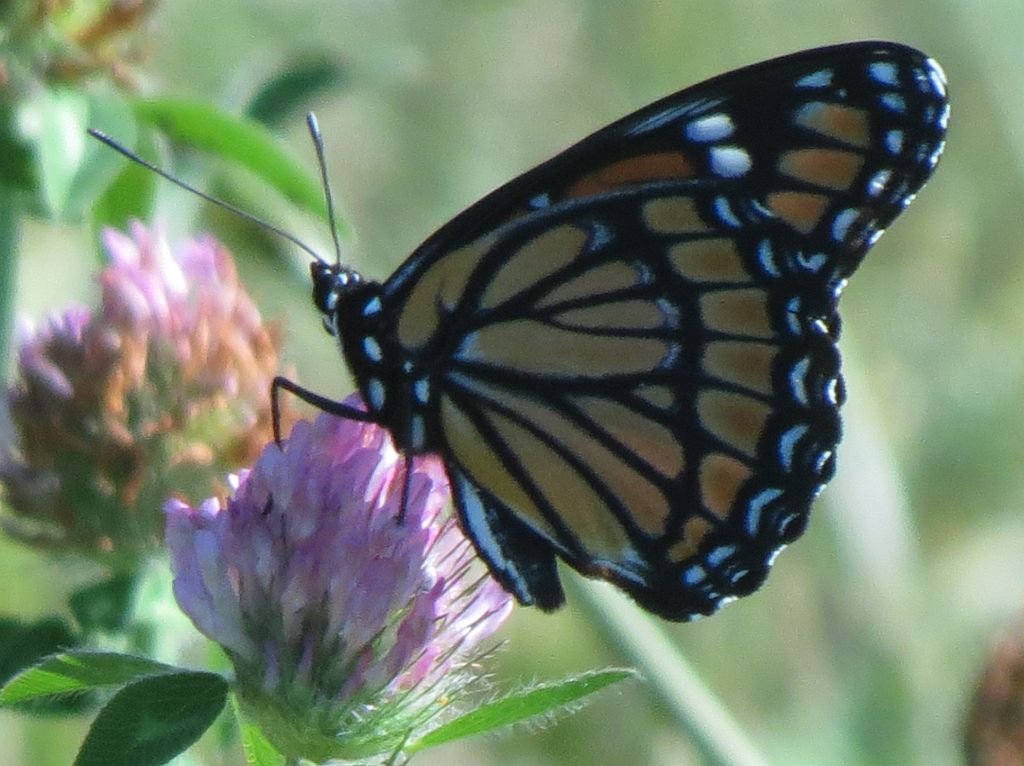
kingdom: Animalia
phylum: Arthropoda
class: Insecta
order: Lepidoptera
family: Nymphalidae
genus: Limenitis
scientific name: Limenitis archippus
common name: Viceroy
